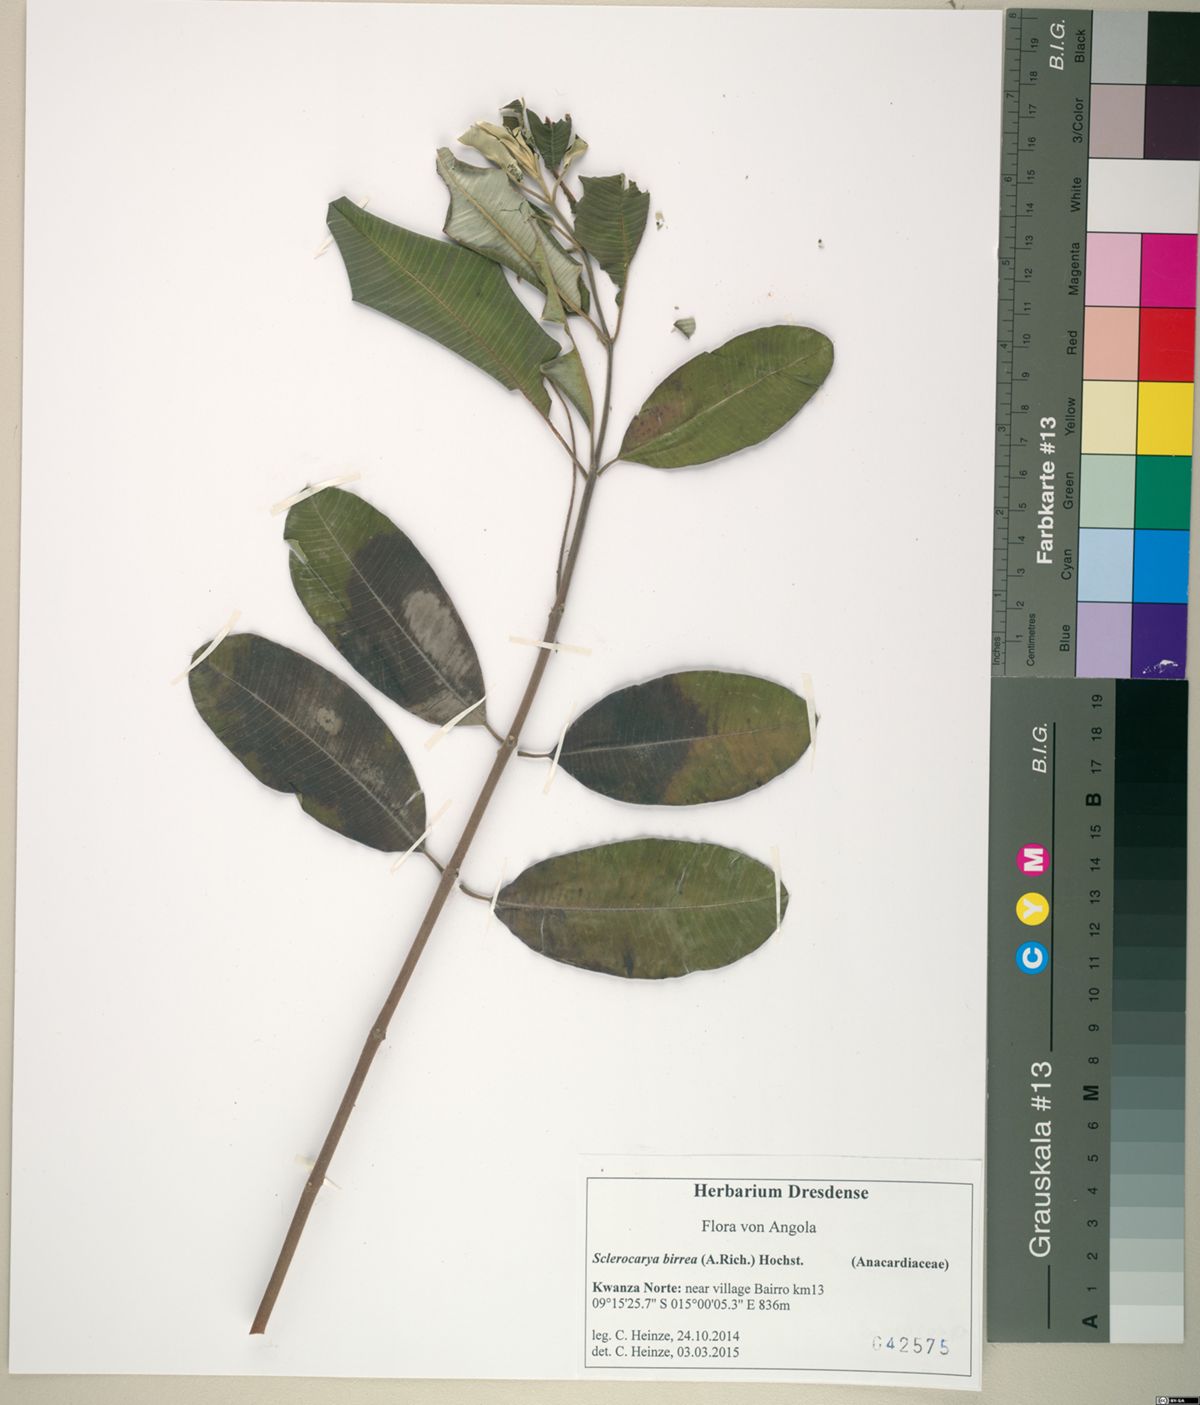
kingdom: Plantae
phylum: Tracheophyta
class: Magnoliopsida
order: Sapindales
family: Anacardiaceae
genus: Sclerocarya
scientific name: Sclerocarya birrea
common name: Marula
